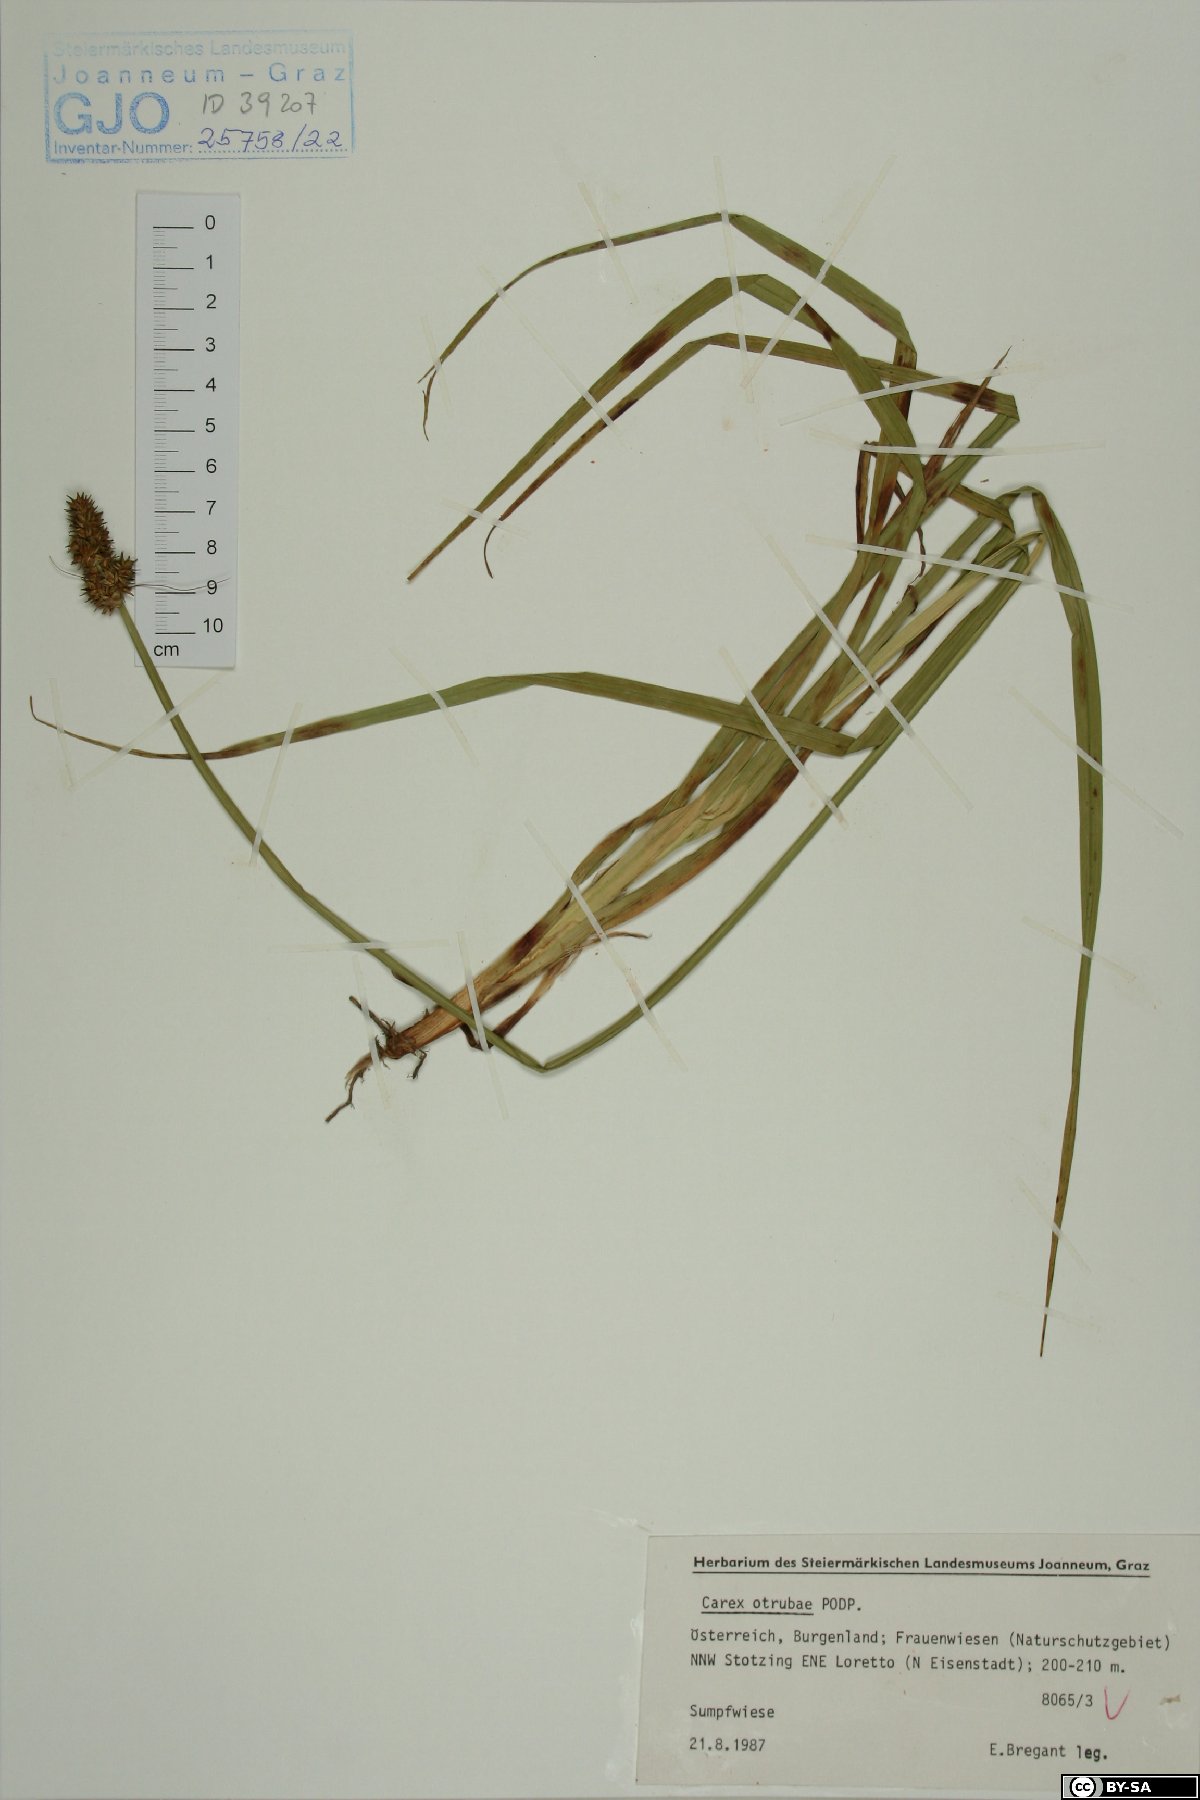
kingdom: Plantae
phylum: Tracheophyta
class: Liliopsida
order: Poales
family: Cyperaceae
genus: Carex
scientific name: Carex otrubae
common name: False fox-sedge
